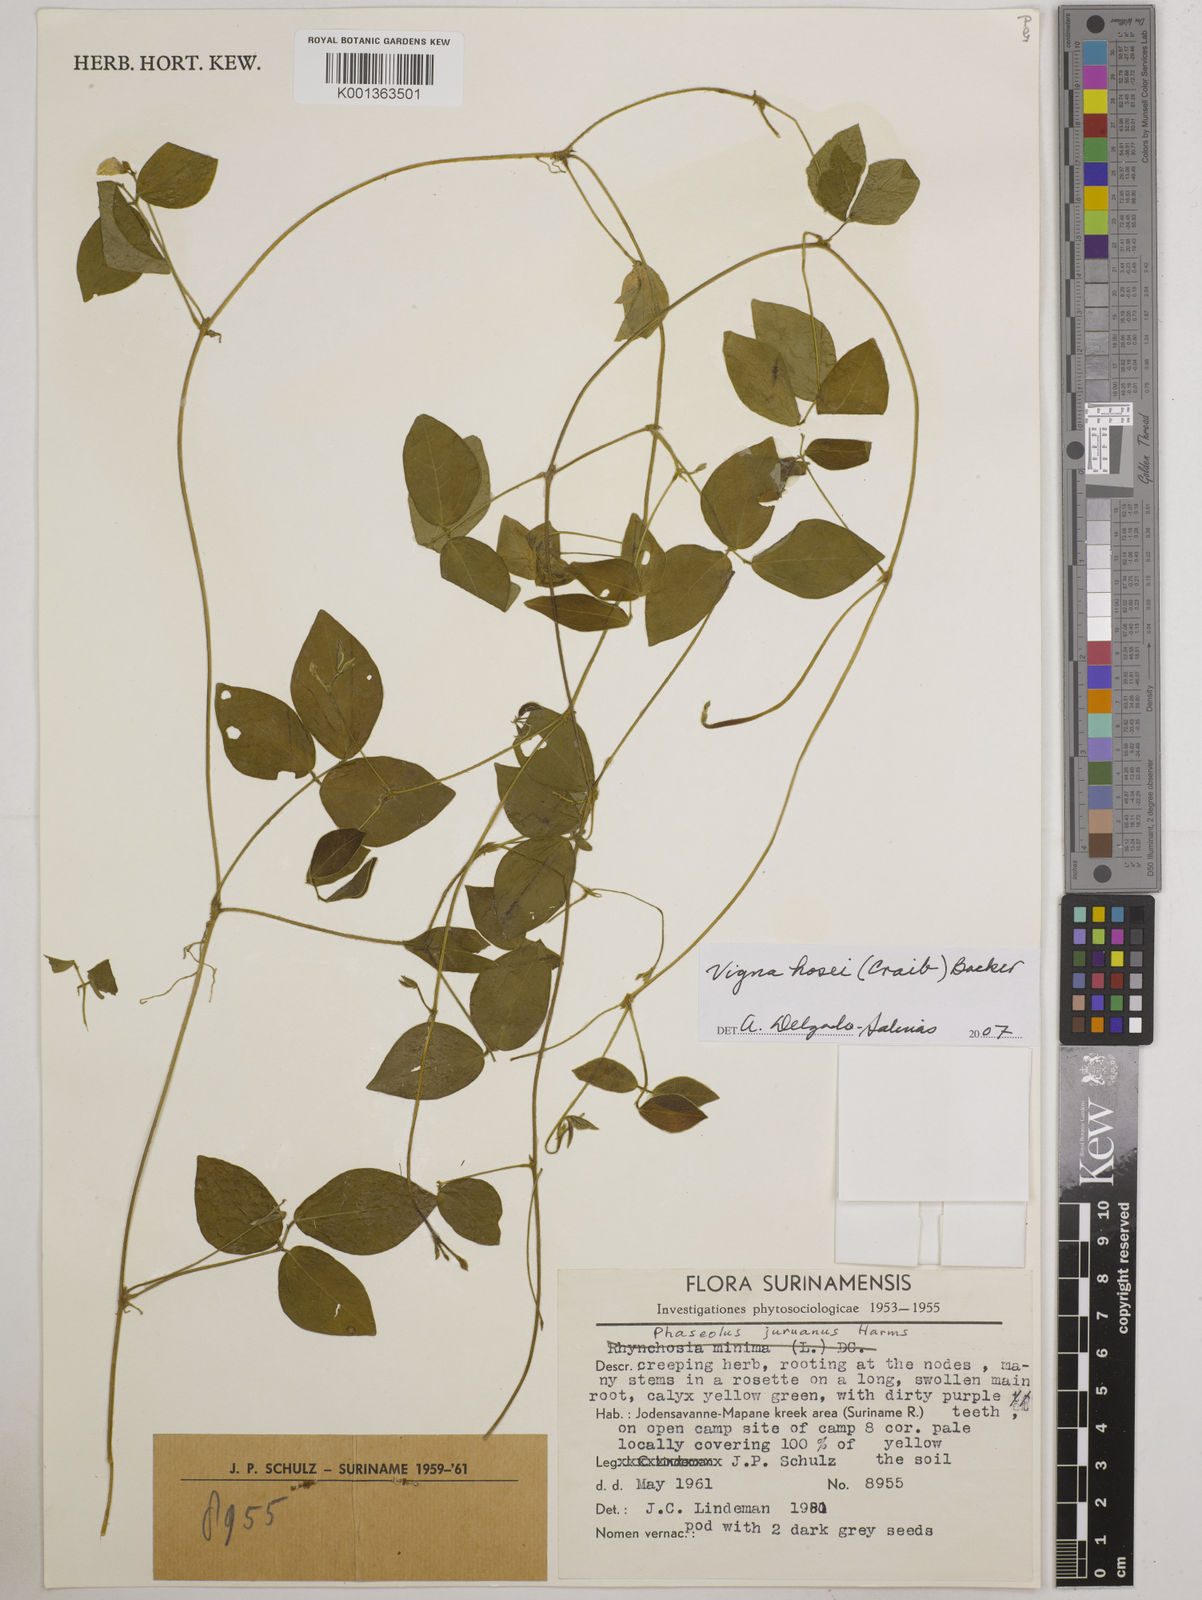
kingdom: Plantae
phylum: Tracheophyta
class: Magnoliopsida
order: Fabales
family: Fabaceae
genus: Vigna
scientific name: Vigna hosei
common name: Sarawak-bean
